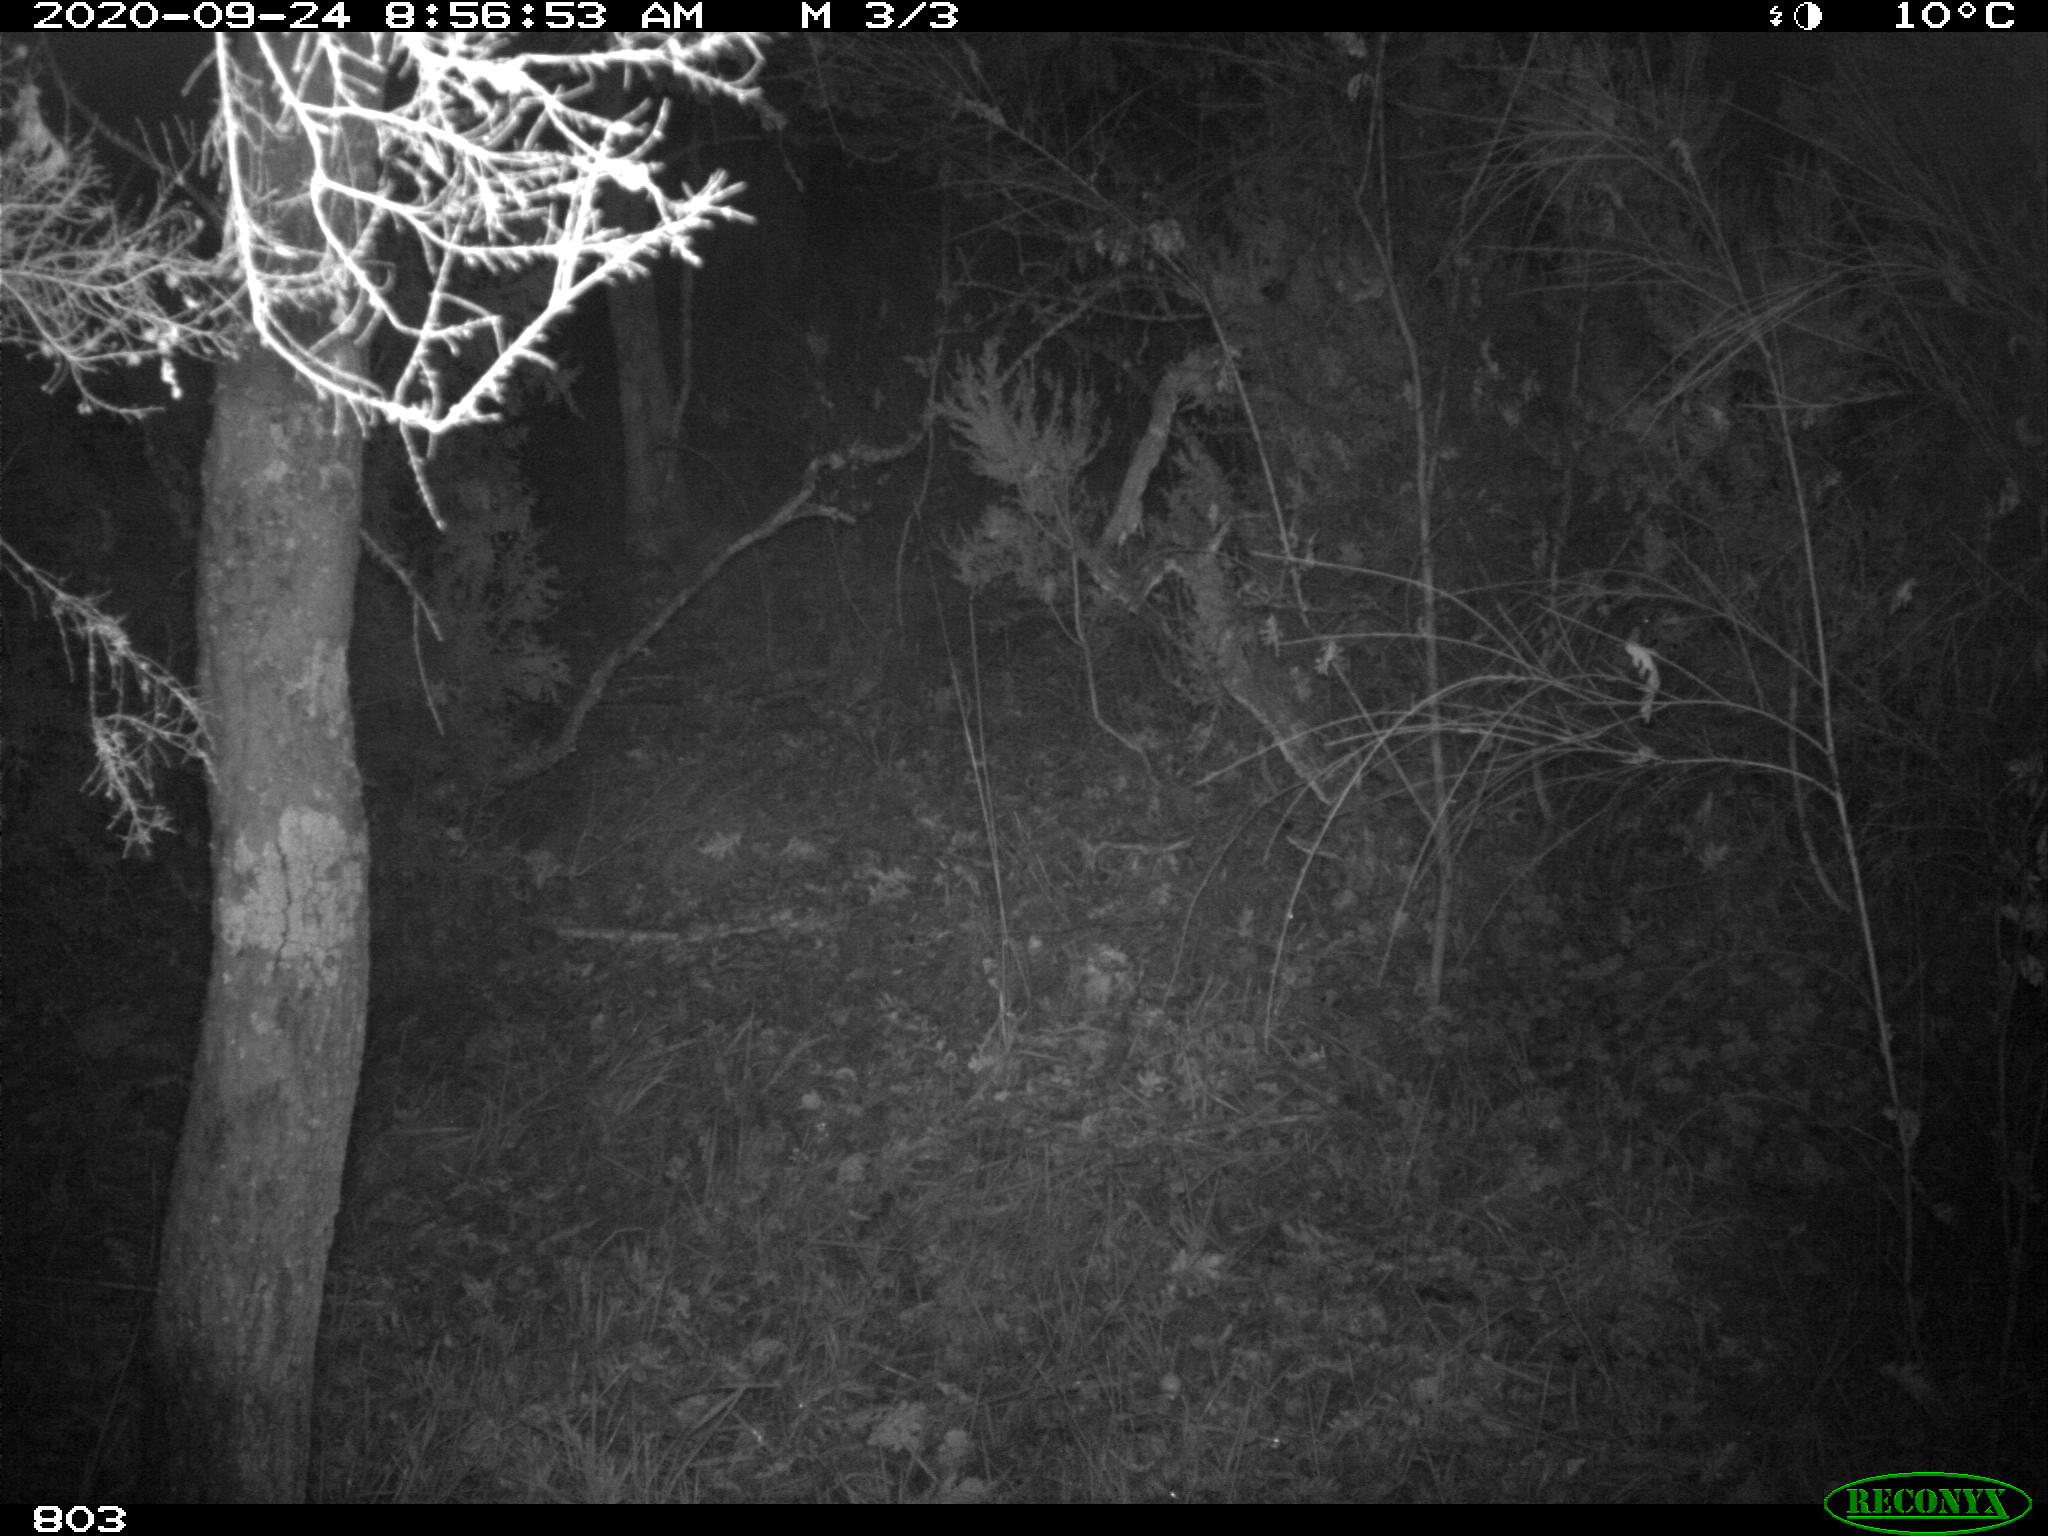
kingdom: Animalia
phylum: Chordata
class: Mammalia
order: Artiodactyla
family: Suidae
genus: Sus
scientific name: Sus scrofa
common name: Wild boar
